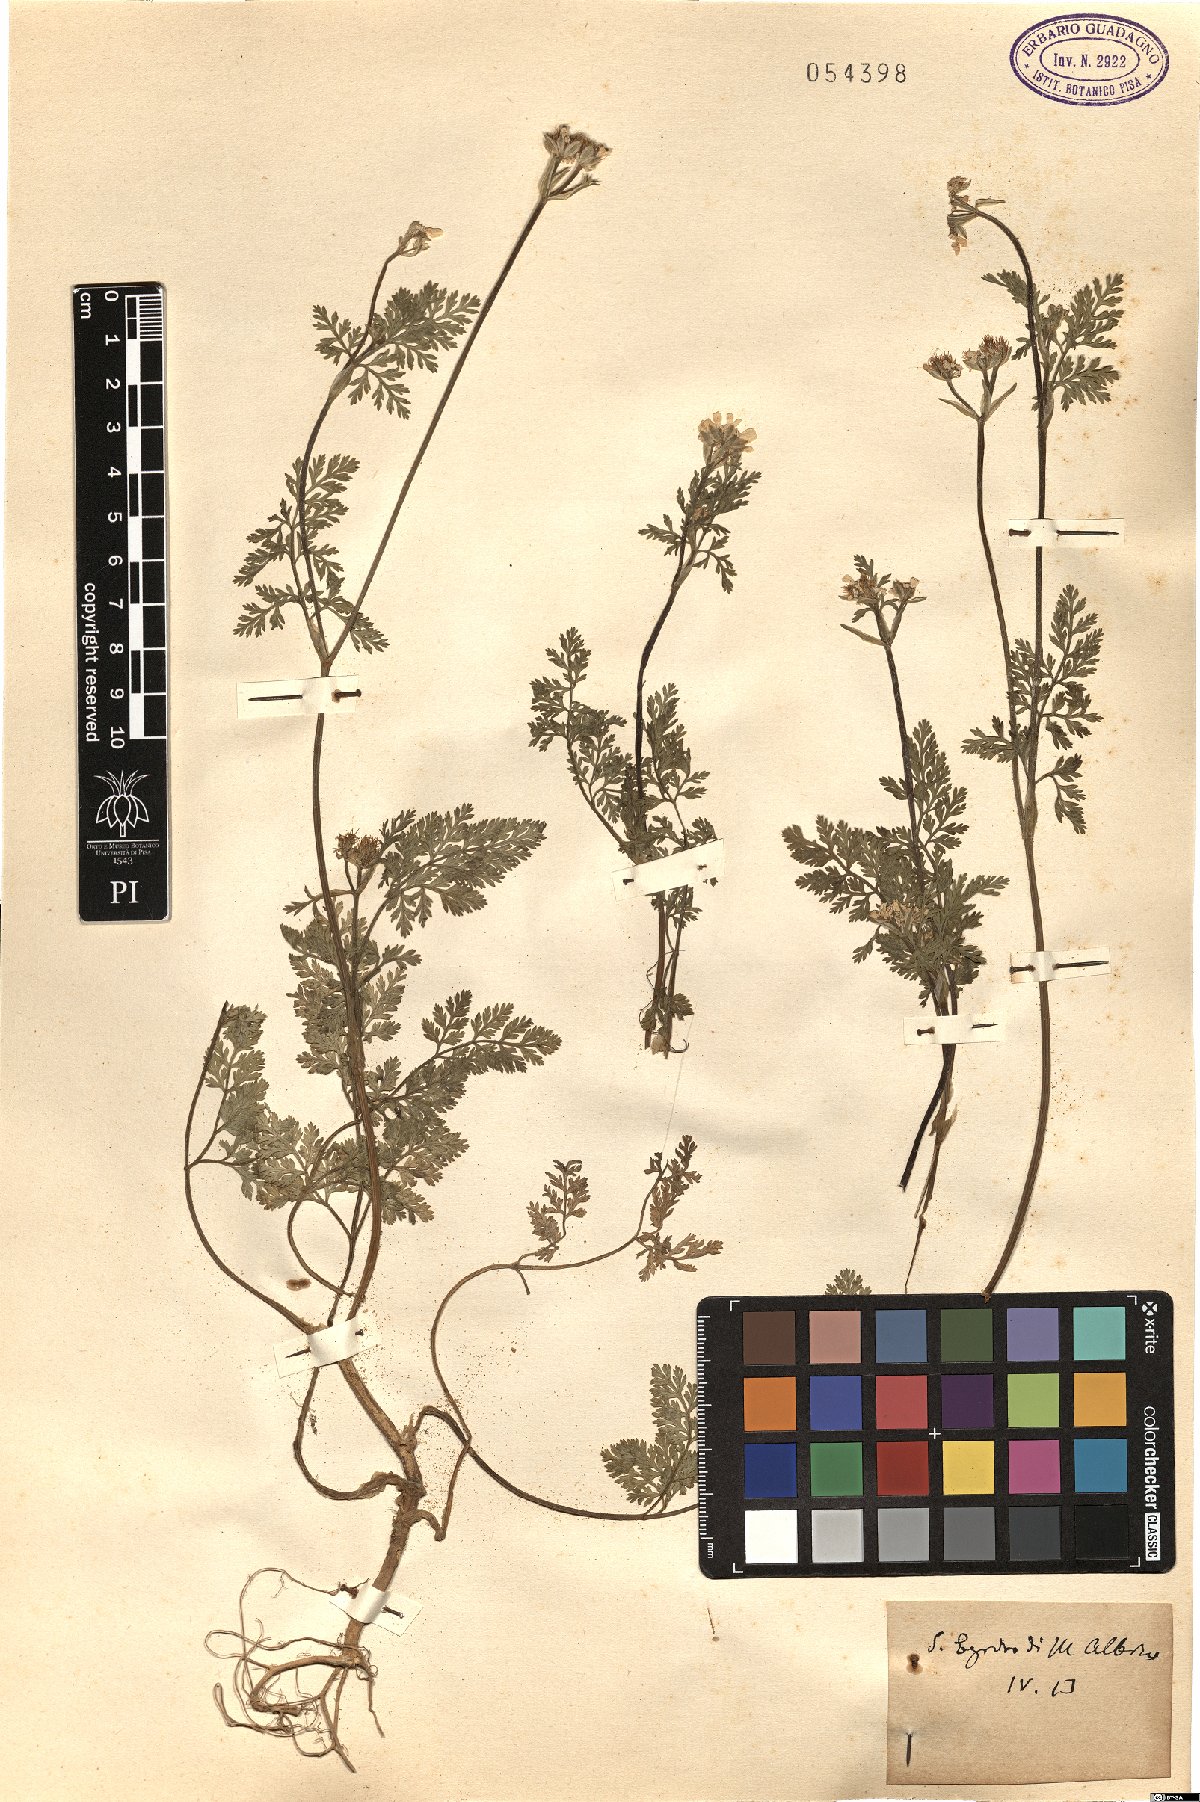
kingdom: Plantae
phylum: Tracheophyta
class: Magnoliopsida
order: Apiales
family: Apiaceae
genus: Orlaya
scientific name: Orlaya
